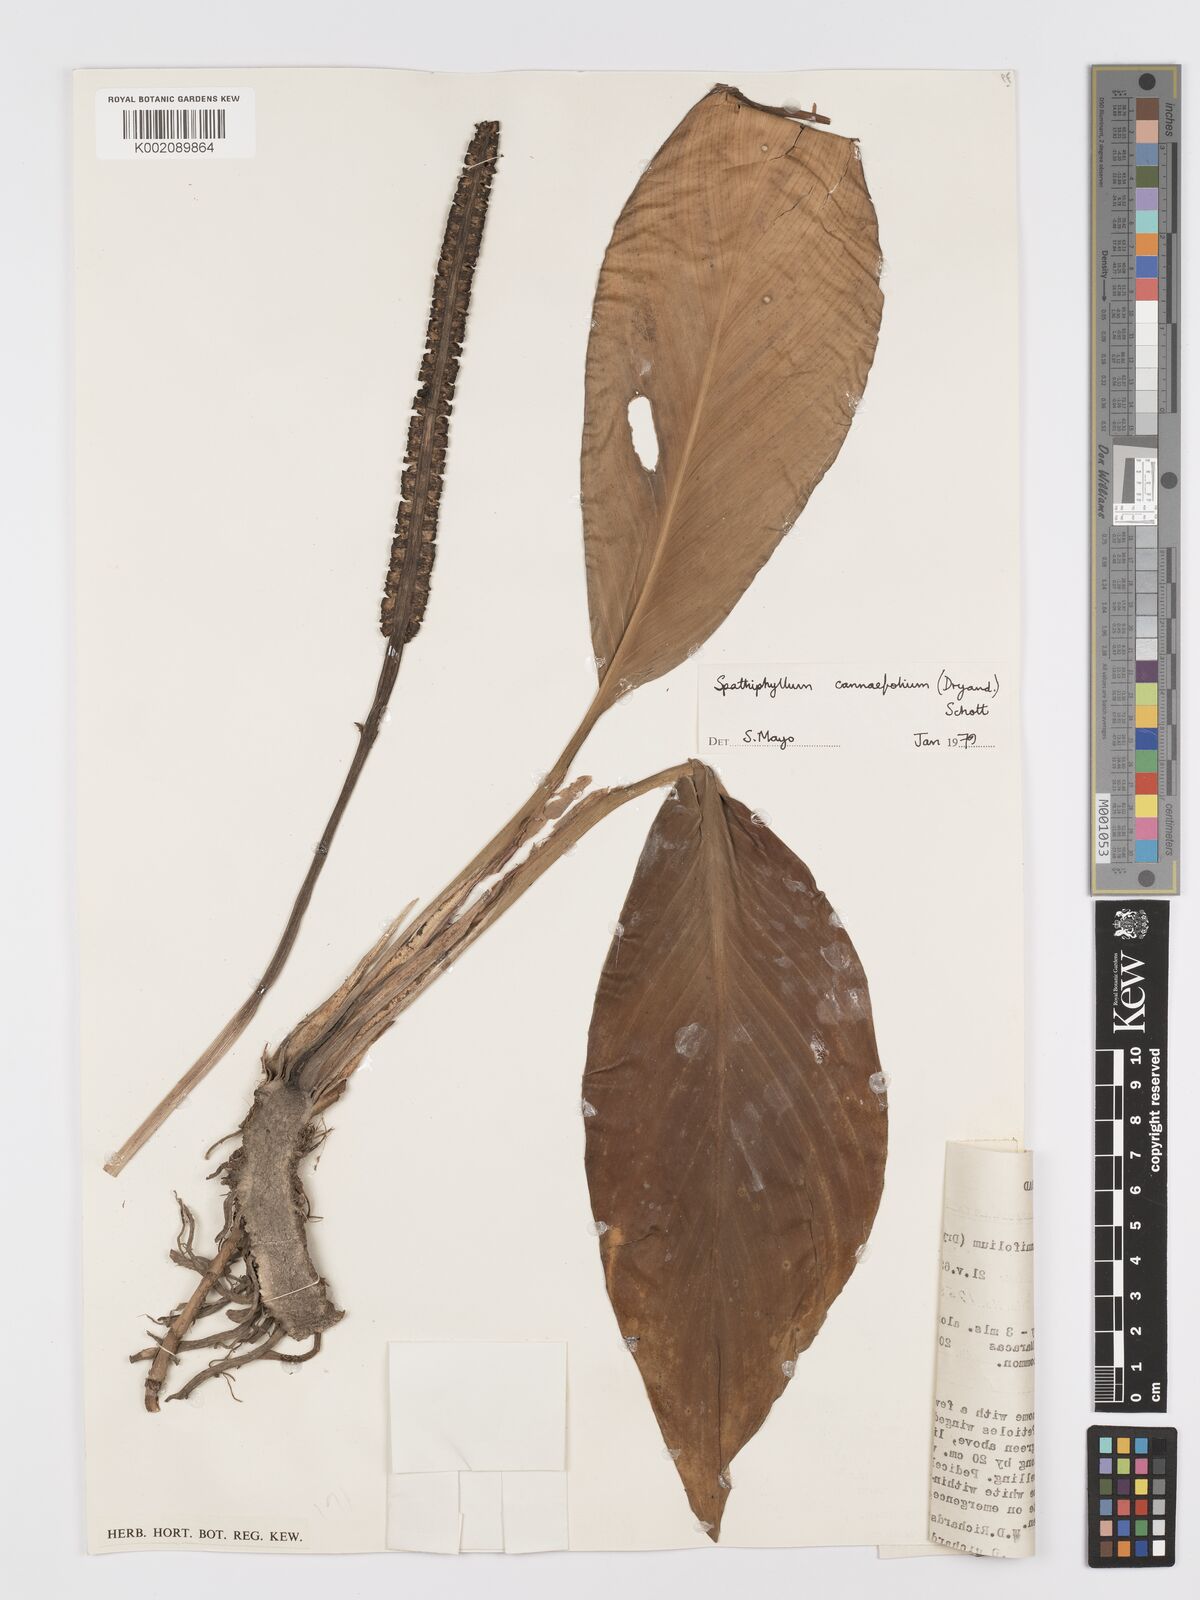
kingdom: Plantae
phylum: Tracheophyta
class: Liliopsida
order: Alismatales
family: Araceae
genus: Spathiphyllum
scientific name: Spathiphyllum cannifolium
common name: Spatheflower
